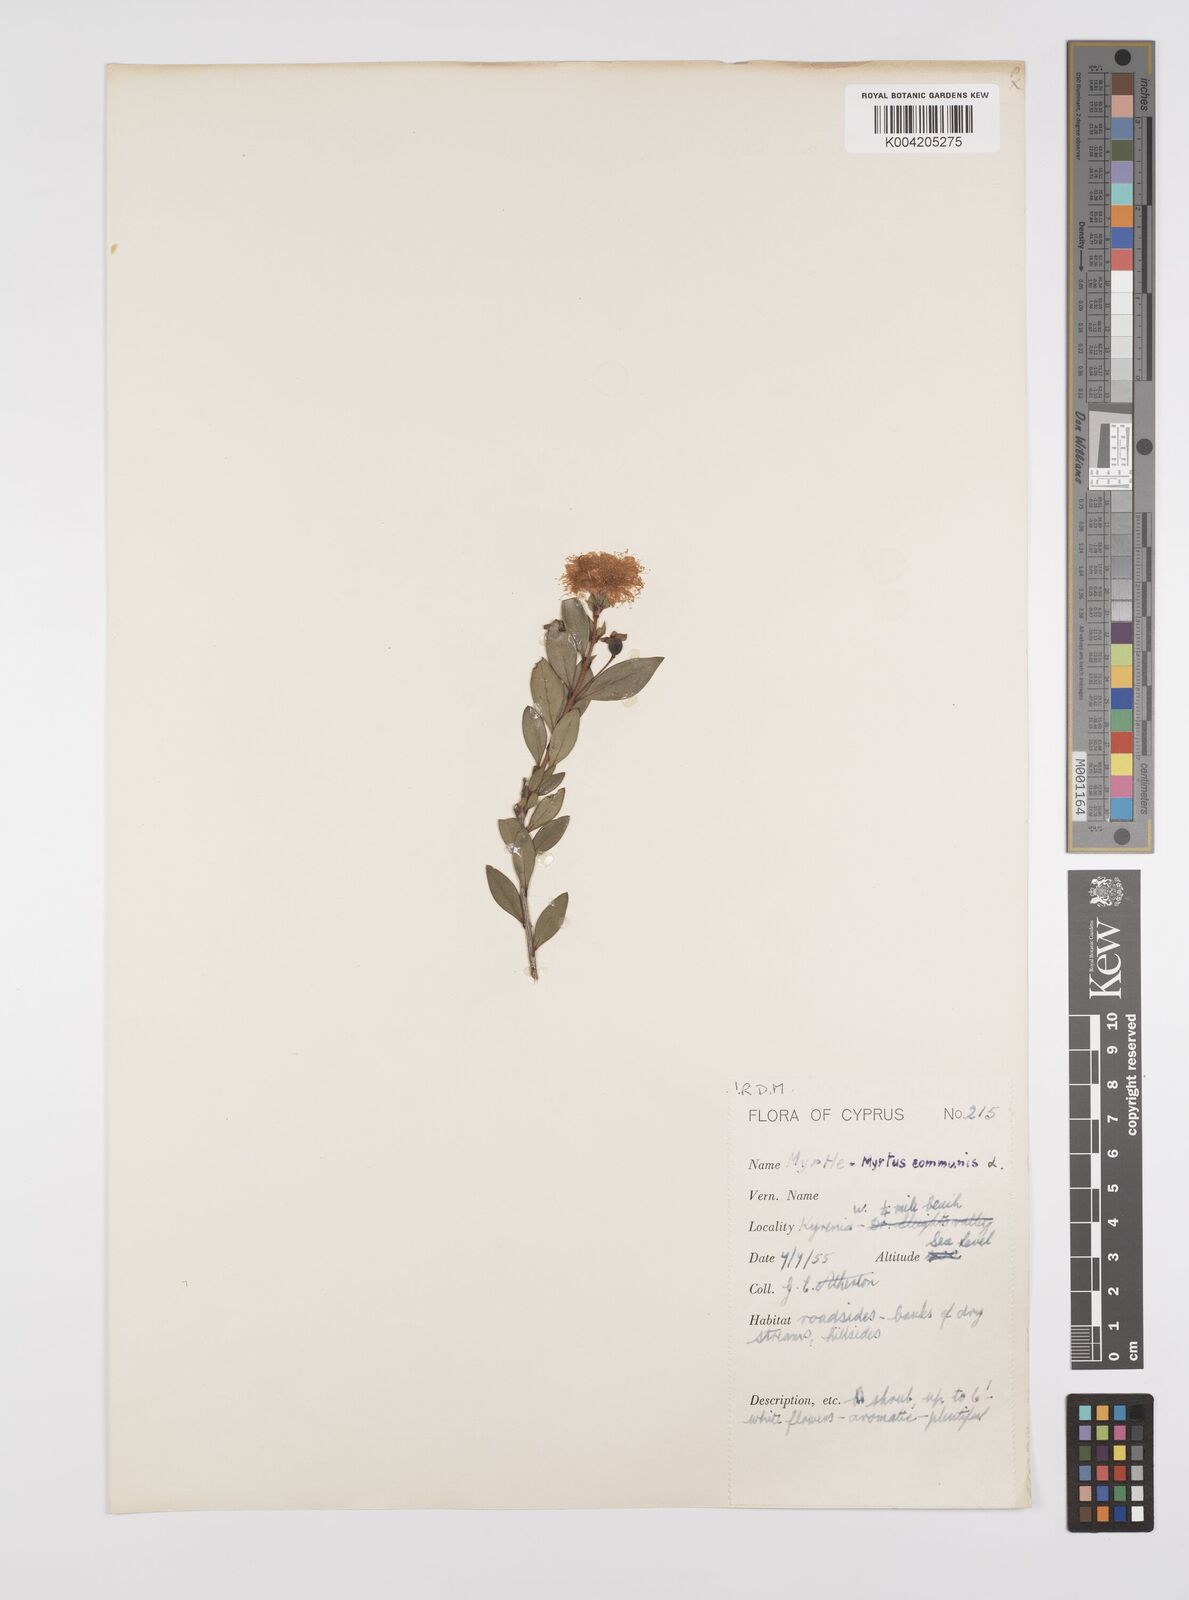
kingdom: Plantae
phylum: Tracheophyta
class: Magnoliopsida
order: Myrtales
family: Myrtaceae
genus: Myrtus
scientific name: Myrtus communis
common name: Myrtle
